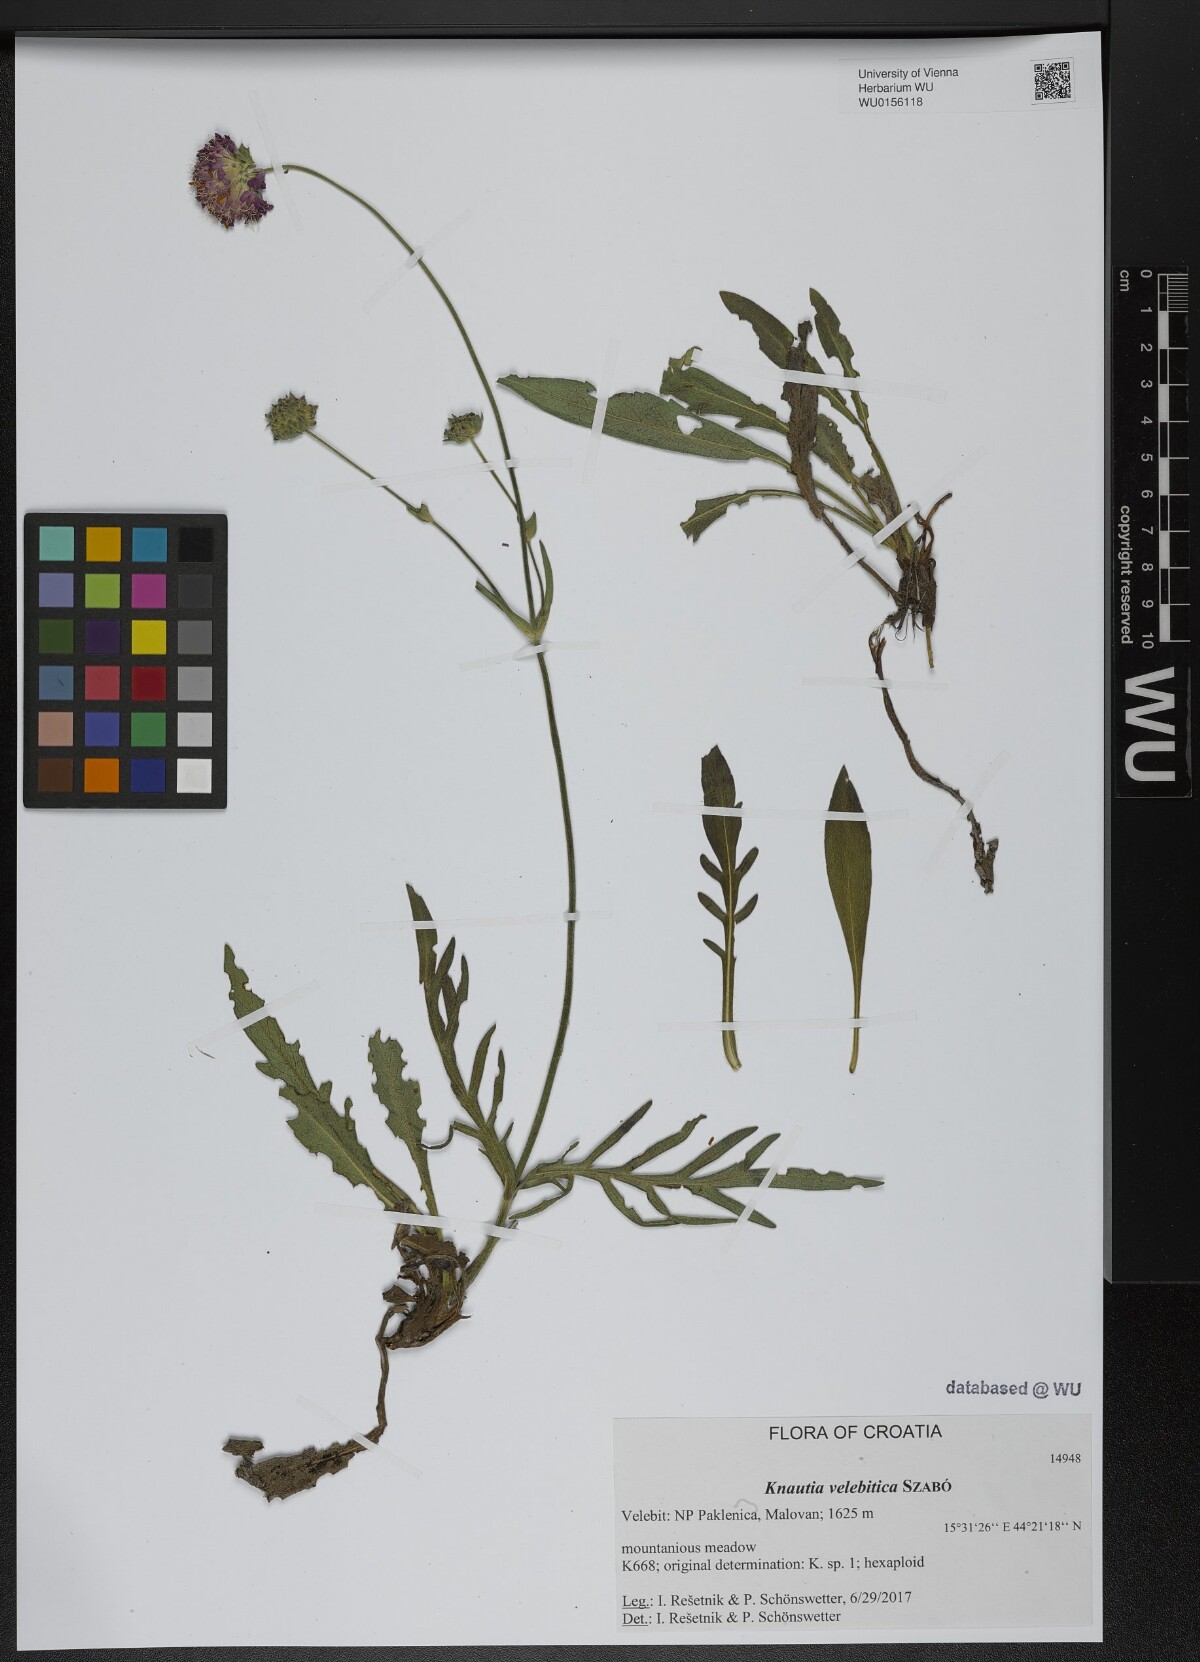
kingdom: Plantae
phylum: Tracheophyta
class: Magnoliopsida
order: Dipsacales
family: Caprifoliaceae
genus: Knautia
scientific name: Knautia velebitica
